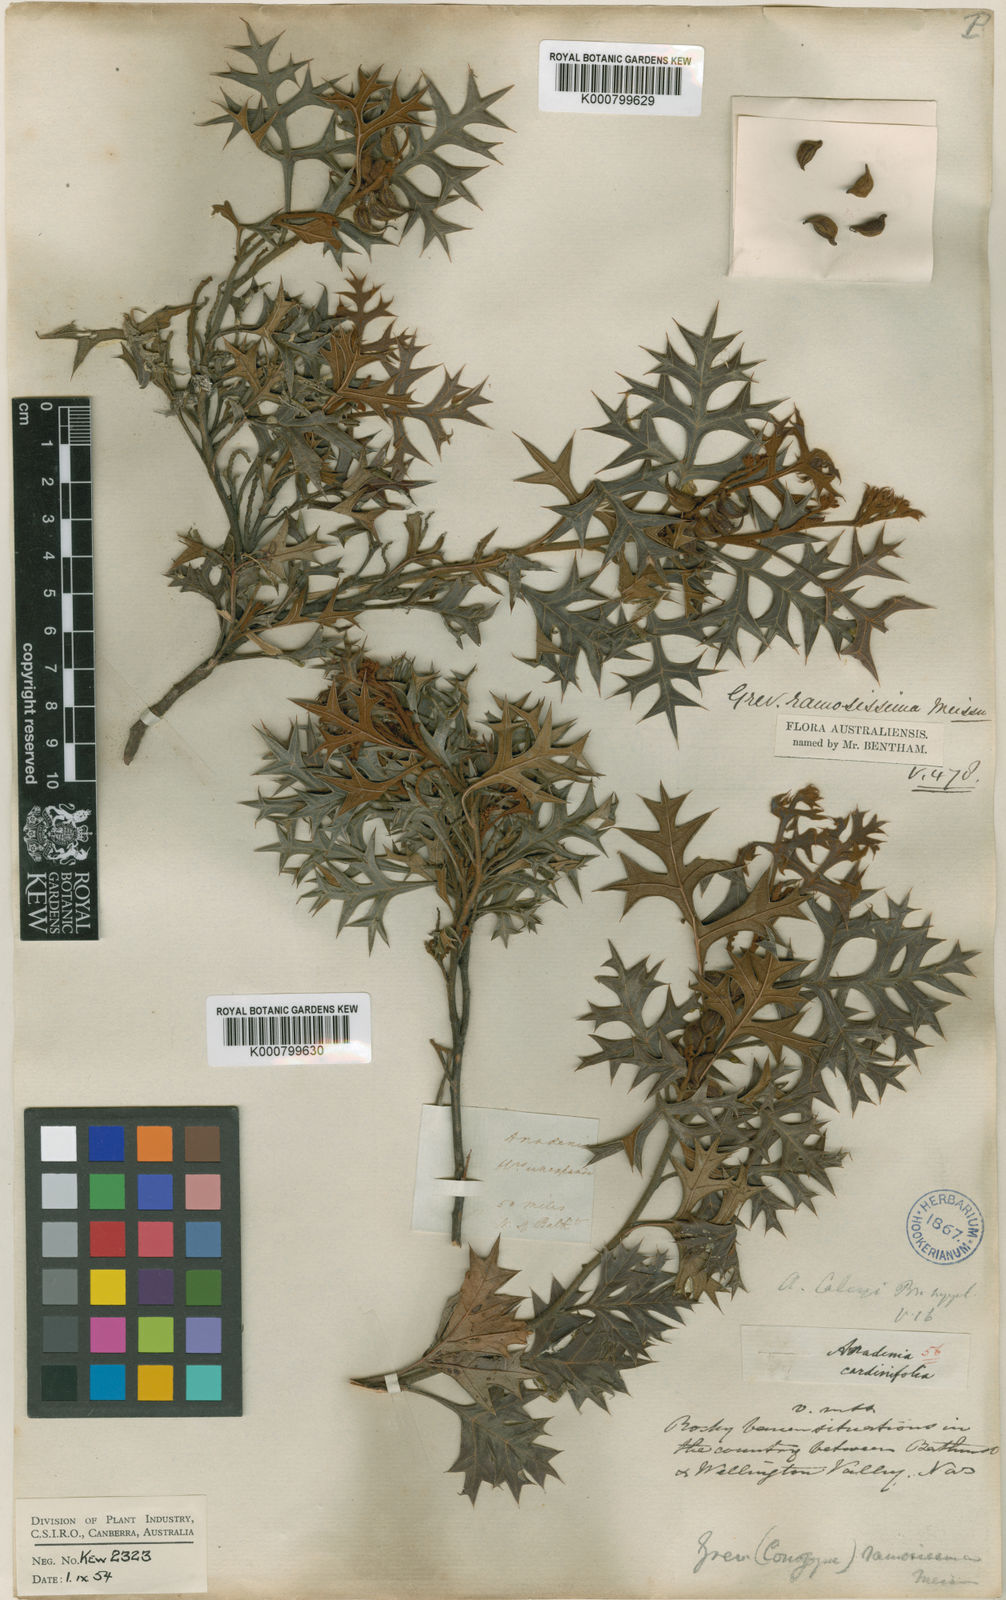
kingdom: Plantae
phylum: Tracheophyta
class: Magnoliopsida
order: Proteales
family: Proteaceae
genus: Grevillea
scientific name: Grevillea ramosissima
